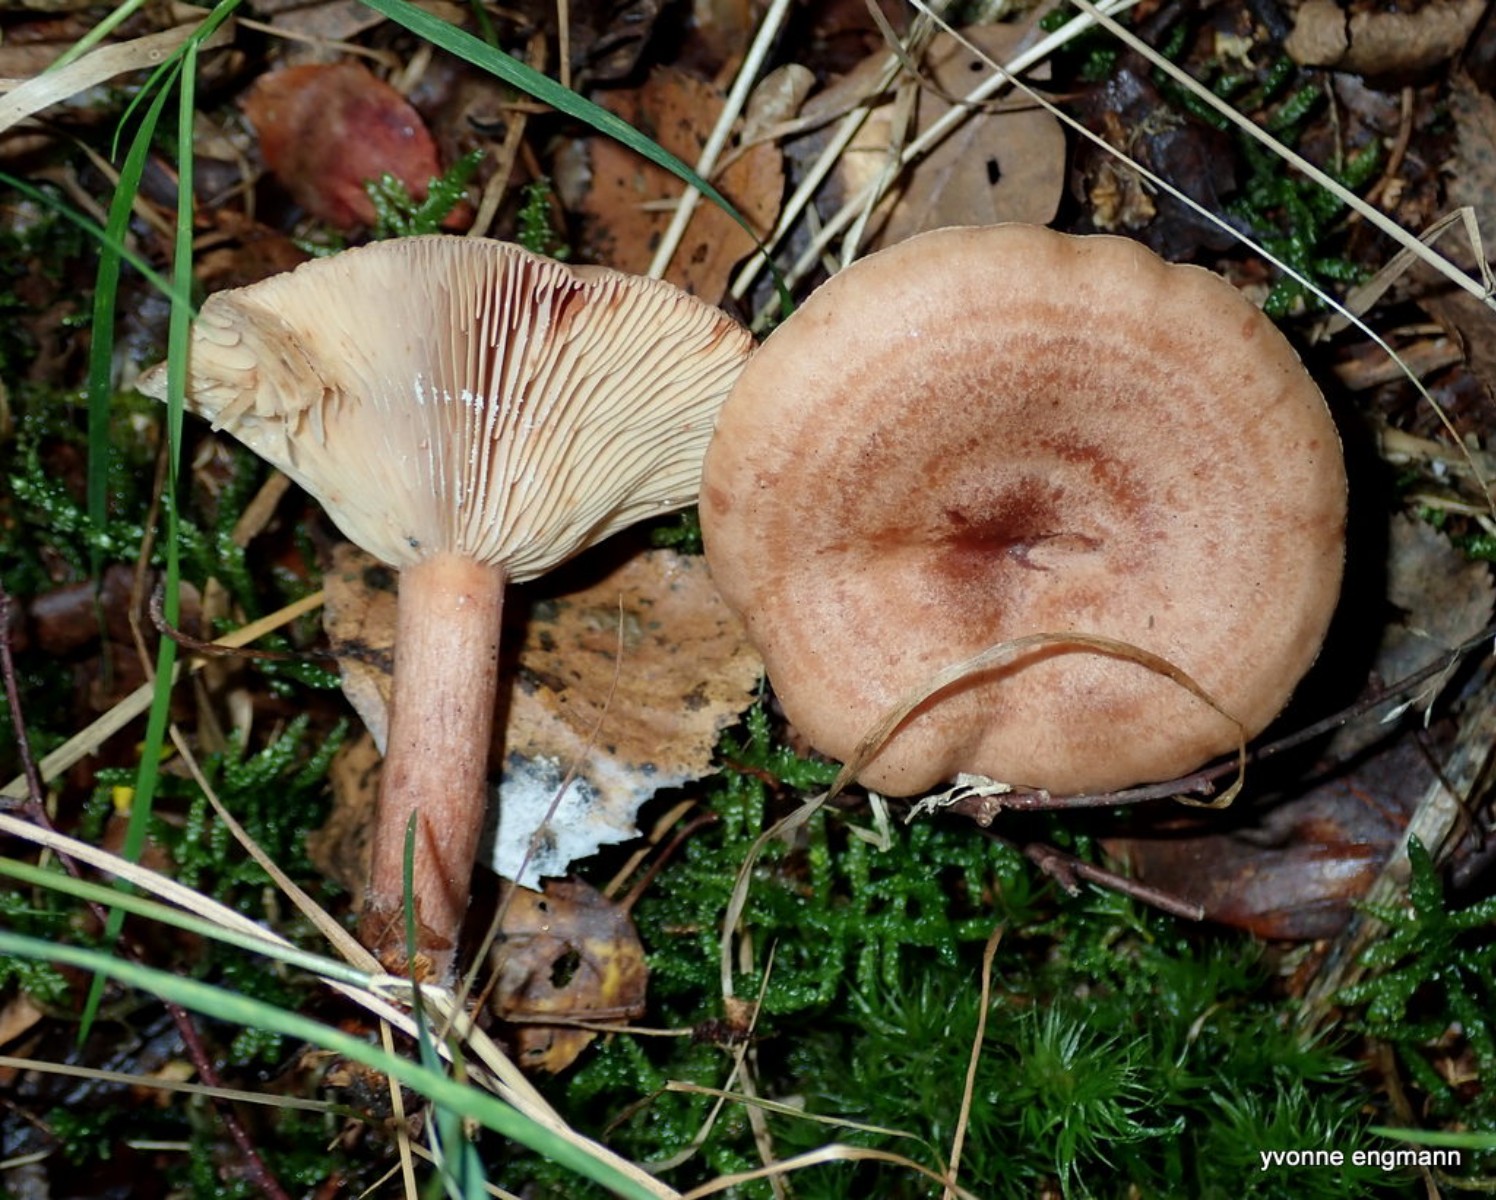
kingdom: Fungi
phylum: Basidiomycota
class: Agaricomycetes
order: Russulales
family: Russulaceae
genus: Lactarius
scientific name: Lactarius quietus
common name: ege-mælkehat
